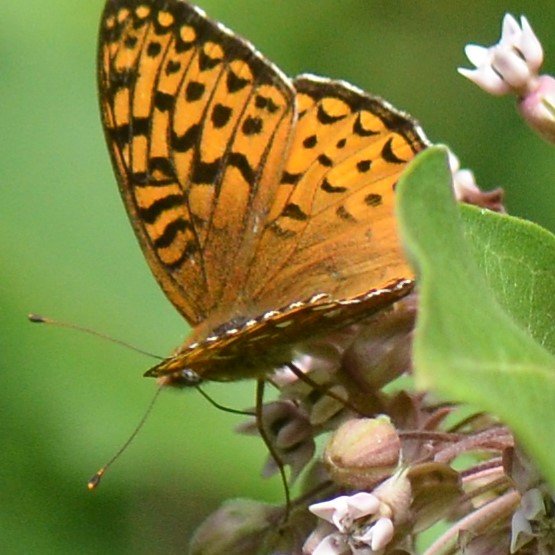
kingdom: Animalia
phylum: Arthropoda
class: Insecta
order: Lepidoptera
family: Nymphalidae
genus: Speyeria
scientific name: Speyeria atlantis
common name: Atlantis Fritillary
